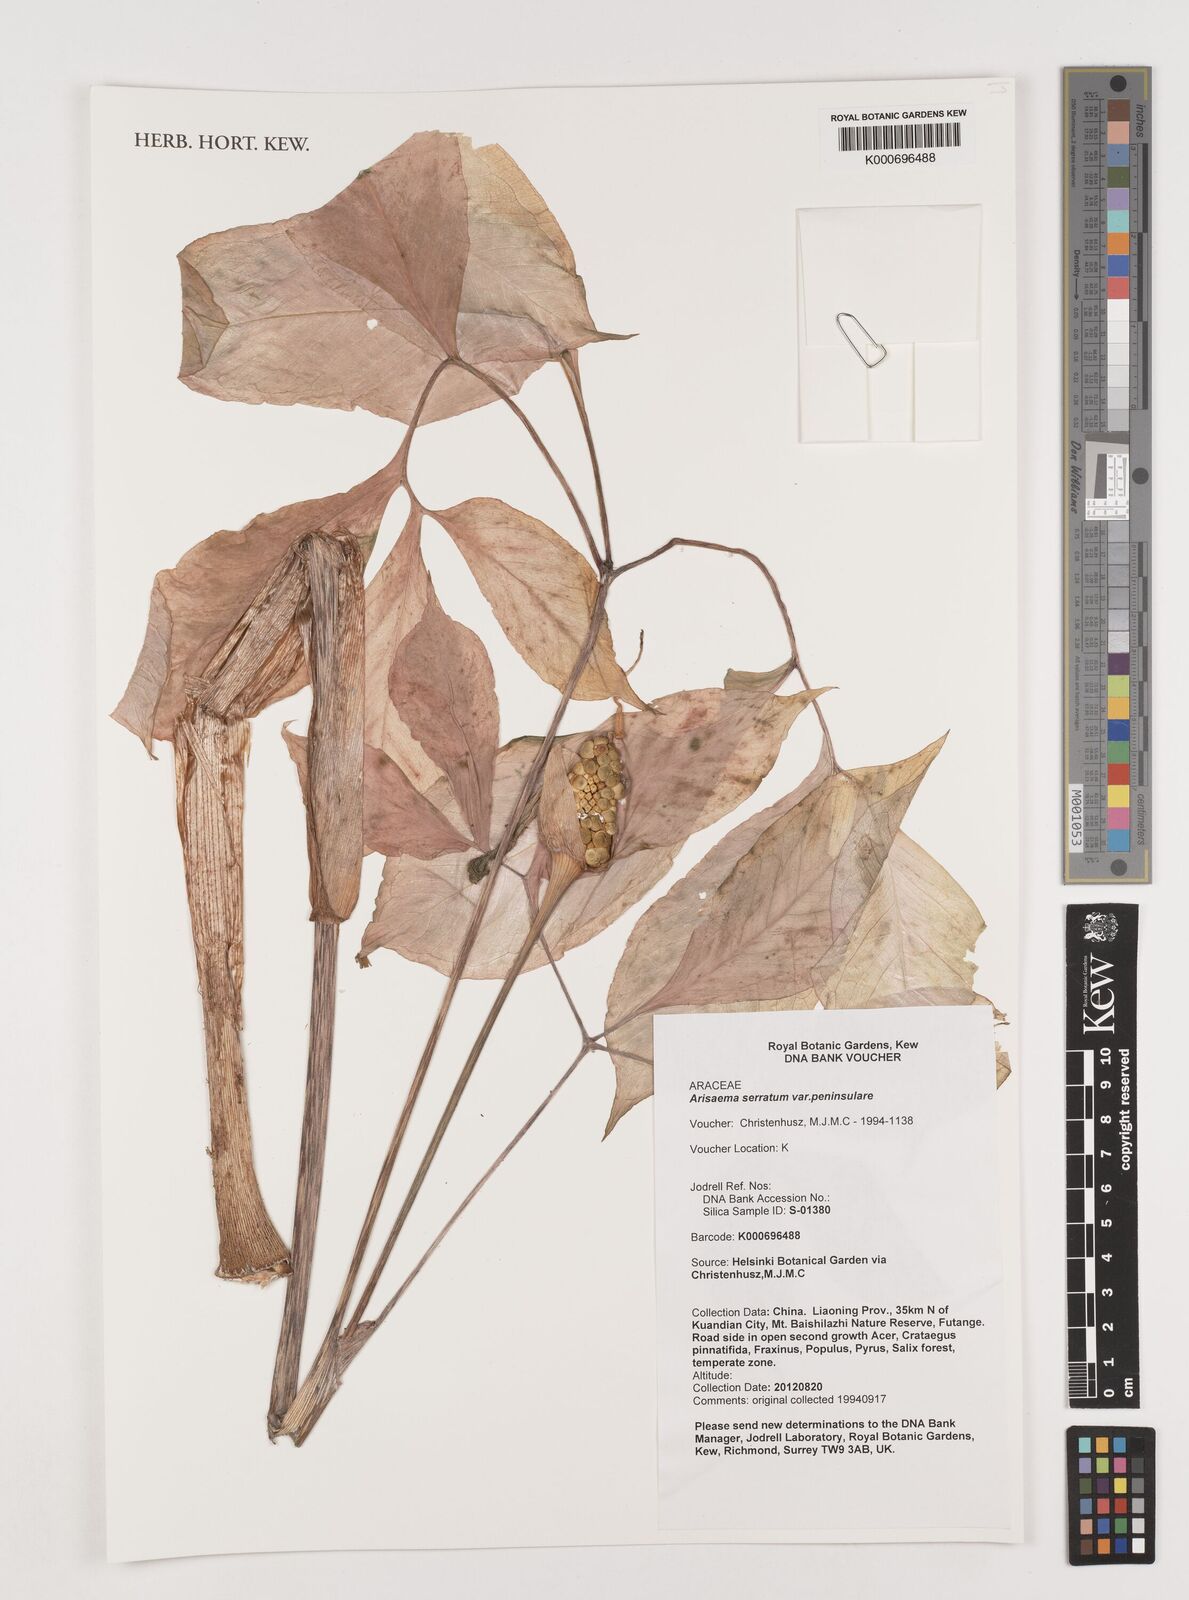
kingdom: Plantae
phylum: Tracheophyta
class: Liliopsida
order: Alismatales
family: Araceae
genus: Arisaema
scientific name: Arisaema
